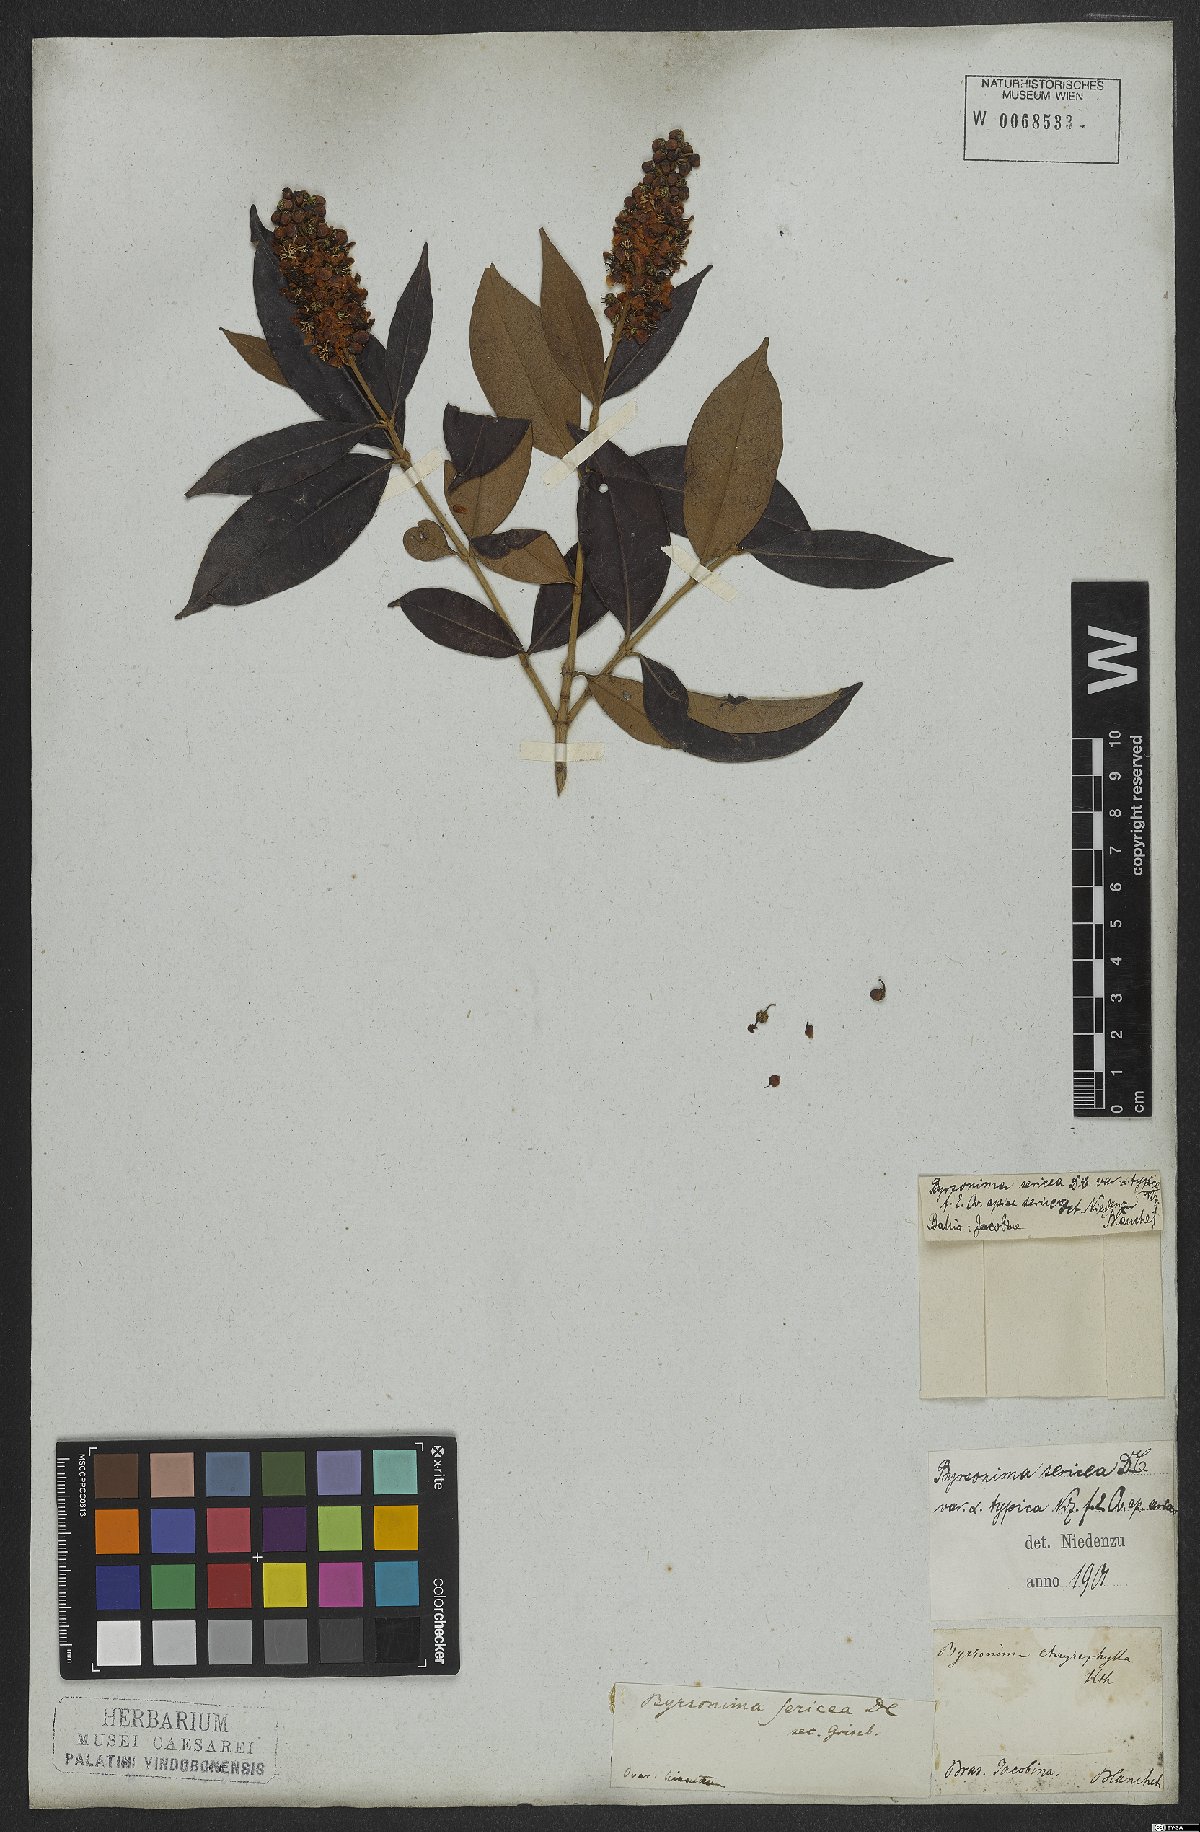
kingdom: Plantae
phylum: Tracheophyta
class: Magnoliopsida
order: Malpighiales
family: Malpighiaceae
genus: Byrsonima
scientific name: Byrsonima sericea
